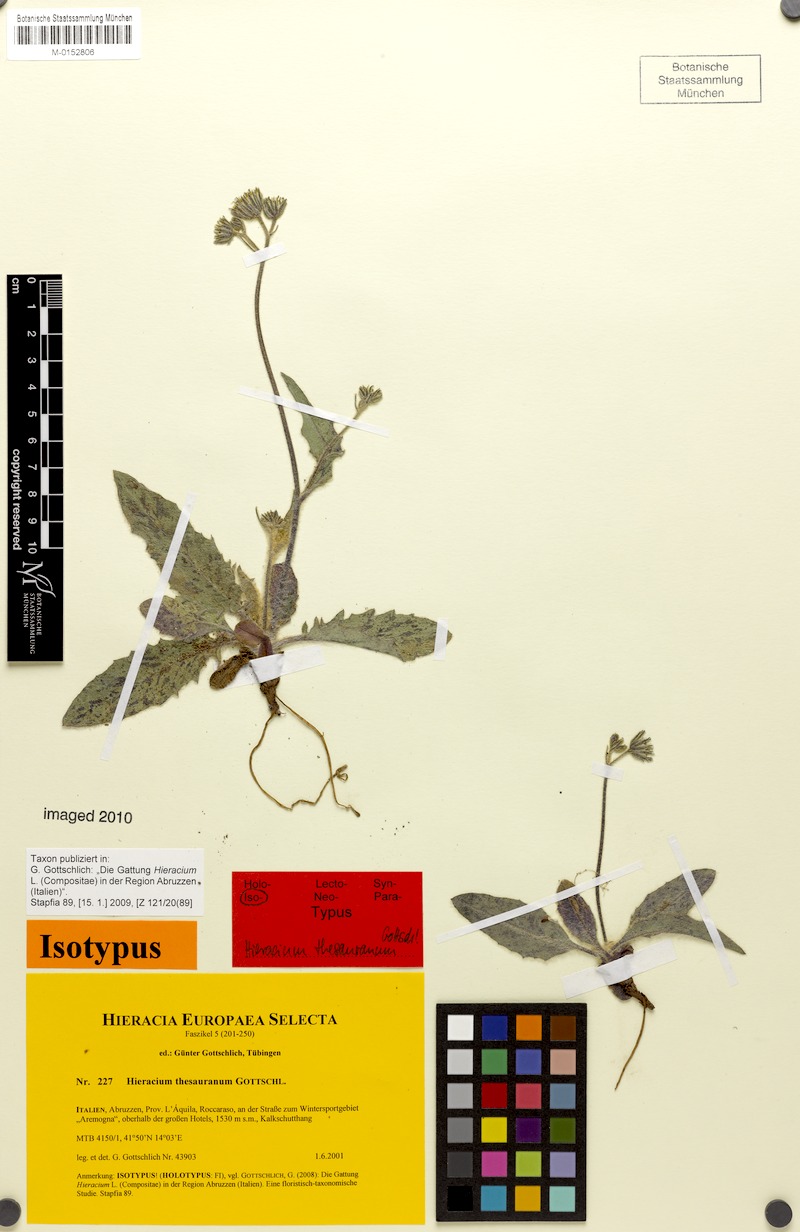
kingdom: Plantae
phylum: Tracheophyta
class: Magnoliopsida
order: Asterales
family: Asteraceae
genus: Hieracium
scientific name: Hieracium thesauranum
